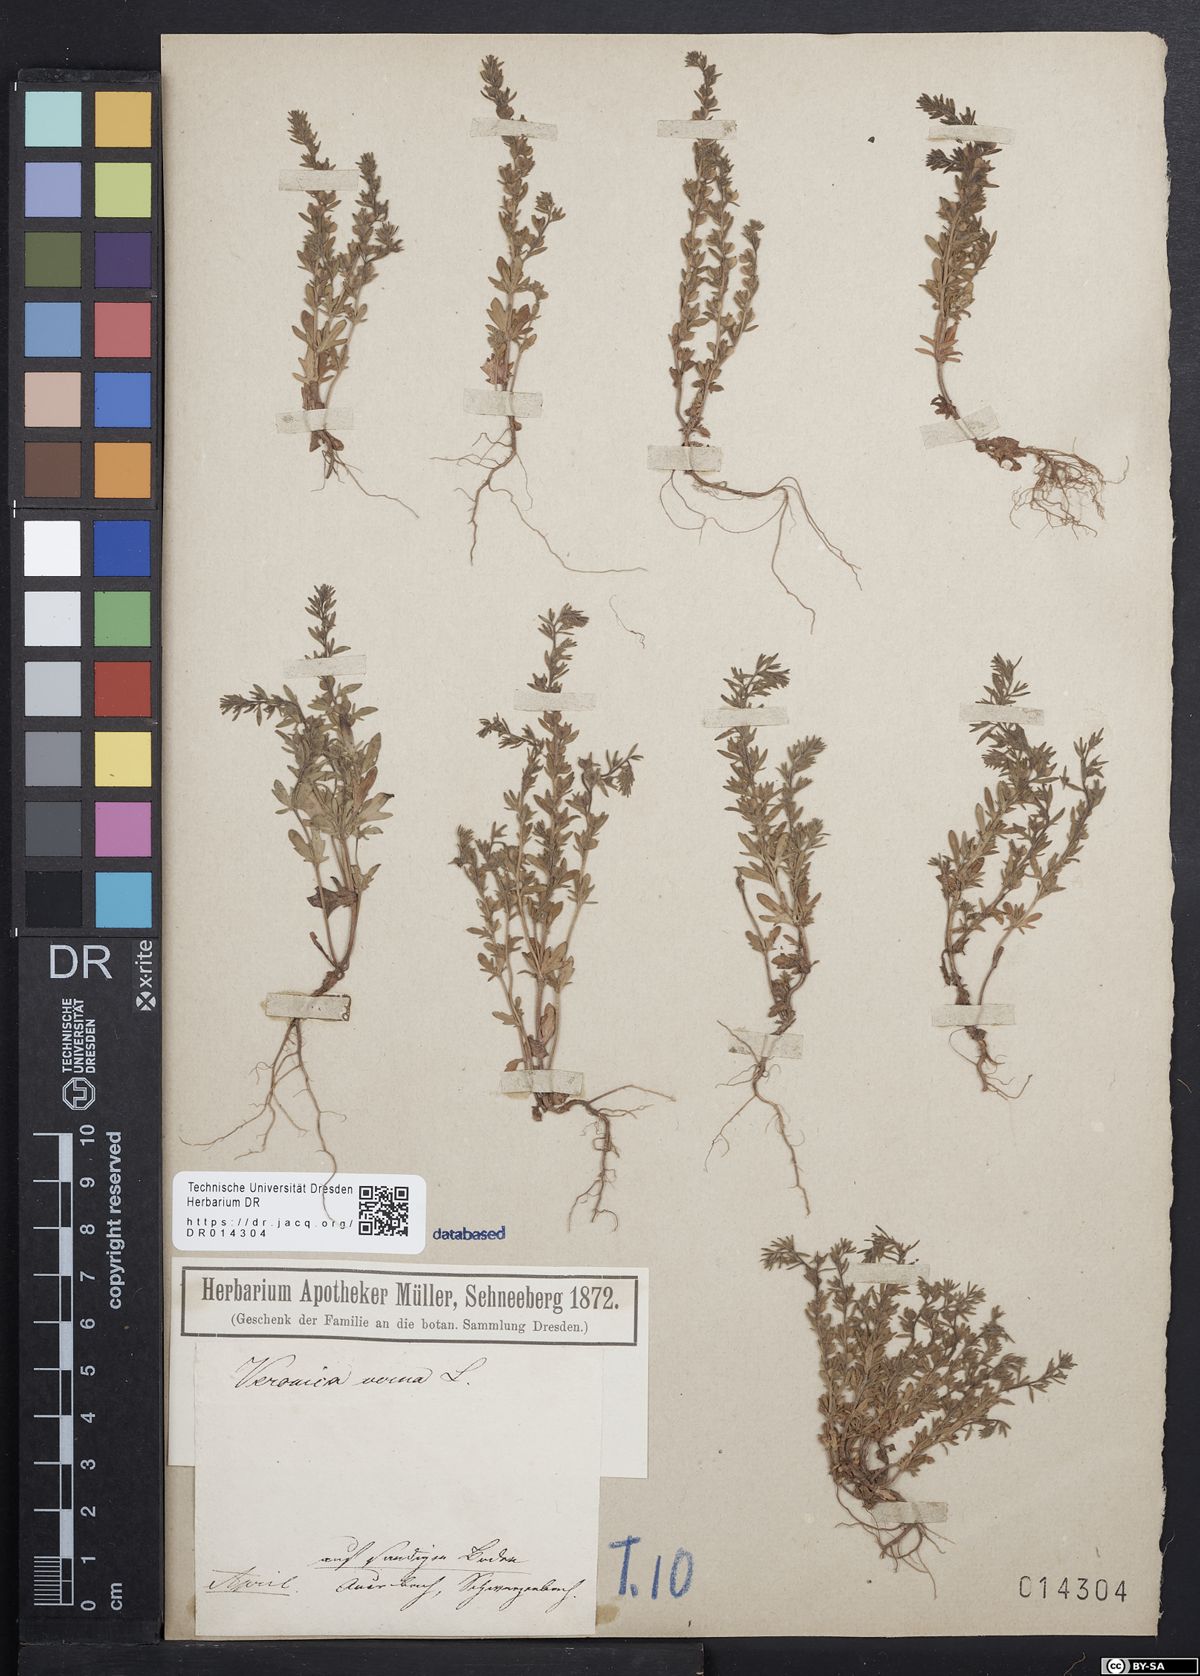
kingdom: Plantae
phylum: Tracheophyta
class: Magnoliopsida
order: Lamiales
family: Plantaginaceae
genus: Veronica
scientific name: Veronica verna
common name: Spring speedwell
